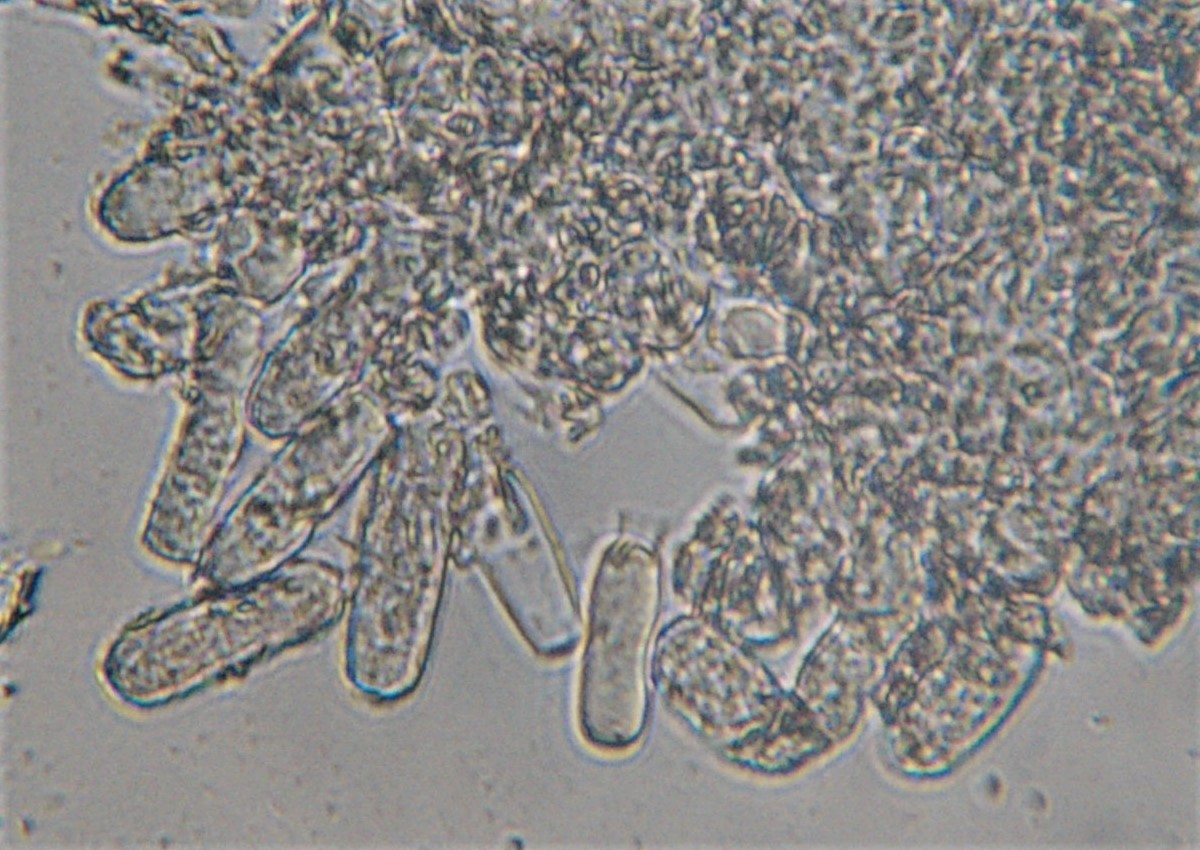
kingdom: Fungi
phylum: Ascomycota
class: Leotiomycetes
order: Helotiales
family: Erysiphaceae
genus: Erysiphe
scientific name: Erysiphe berberidis
